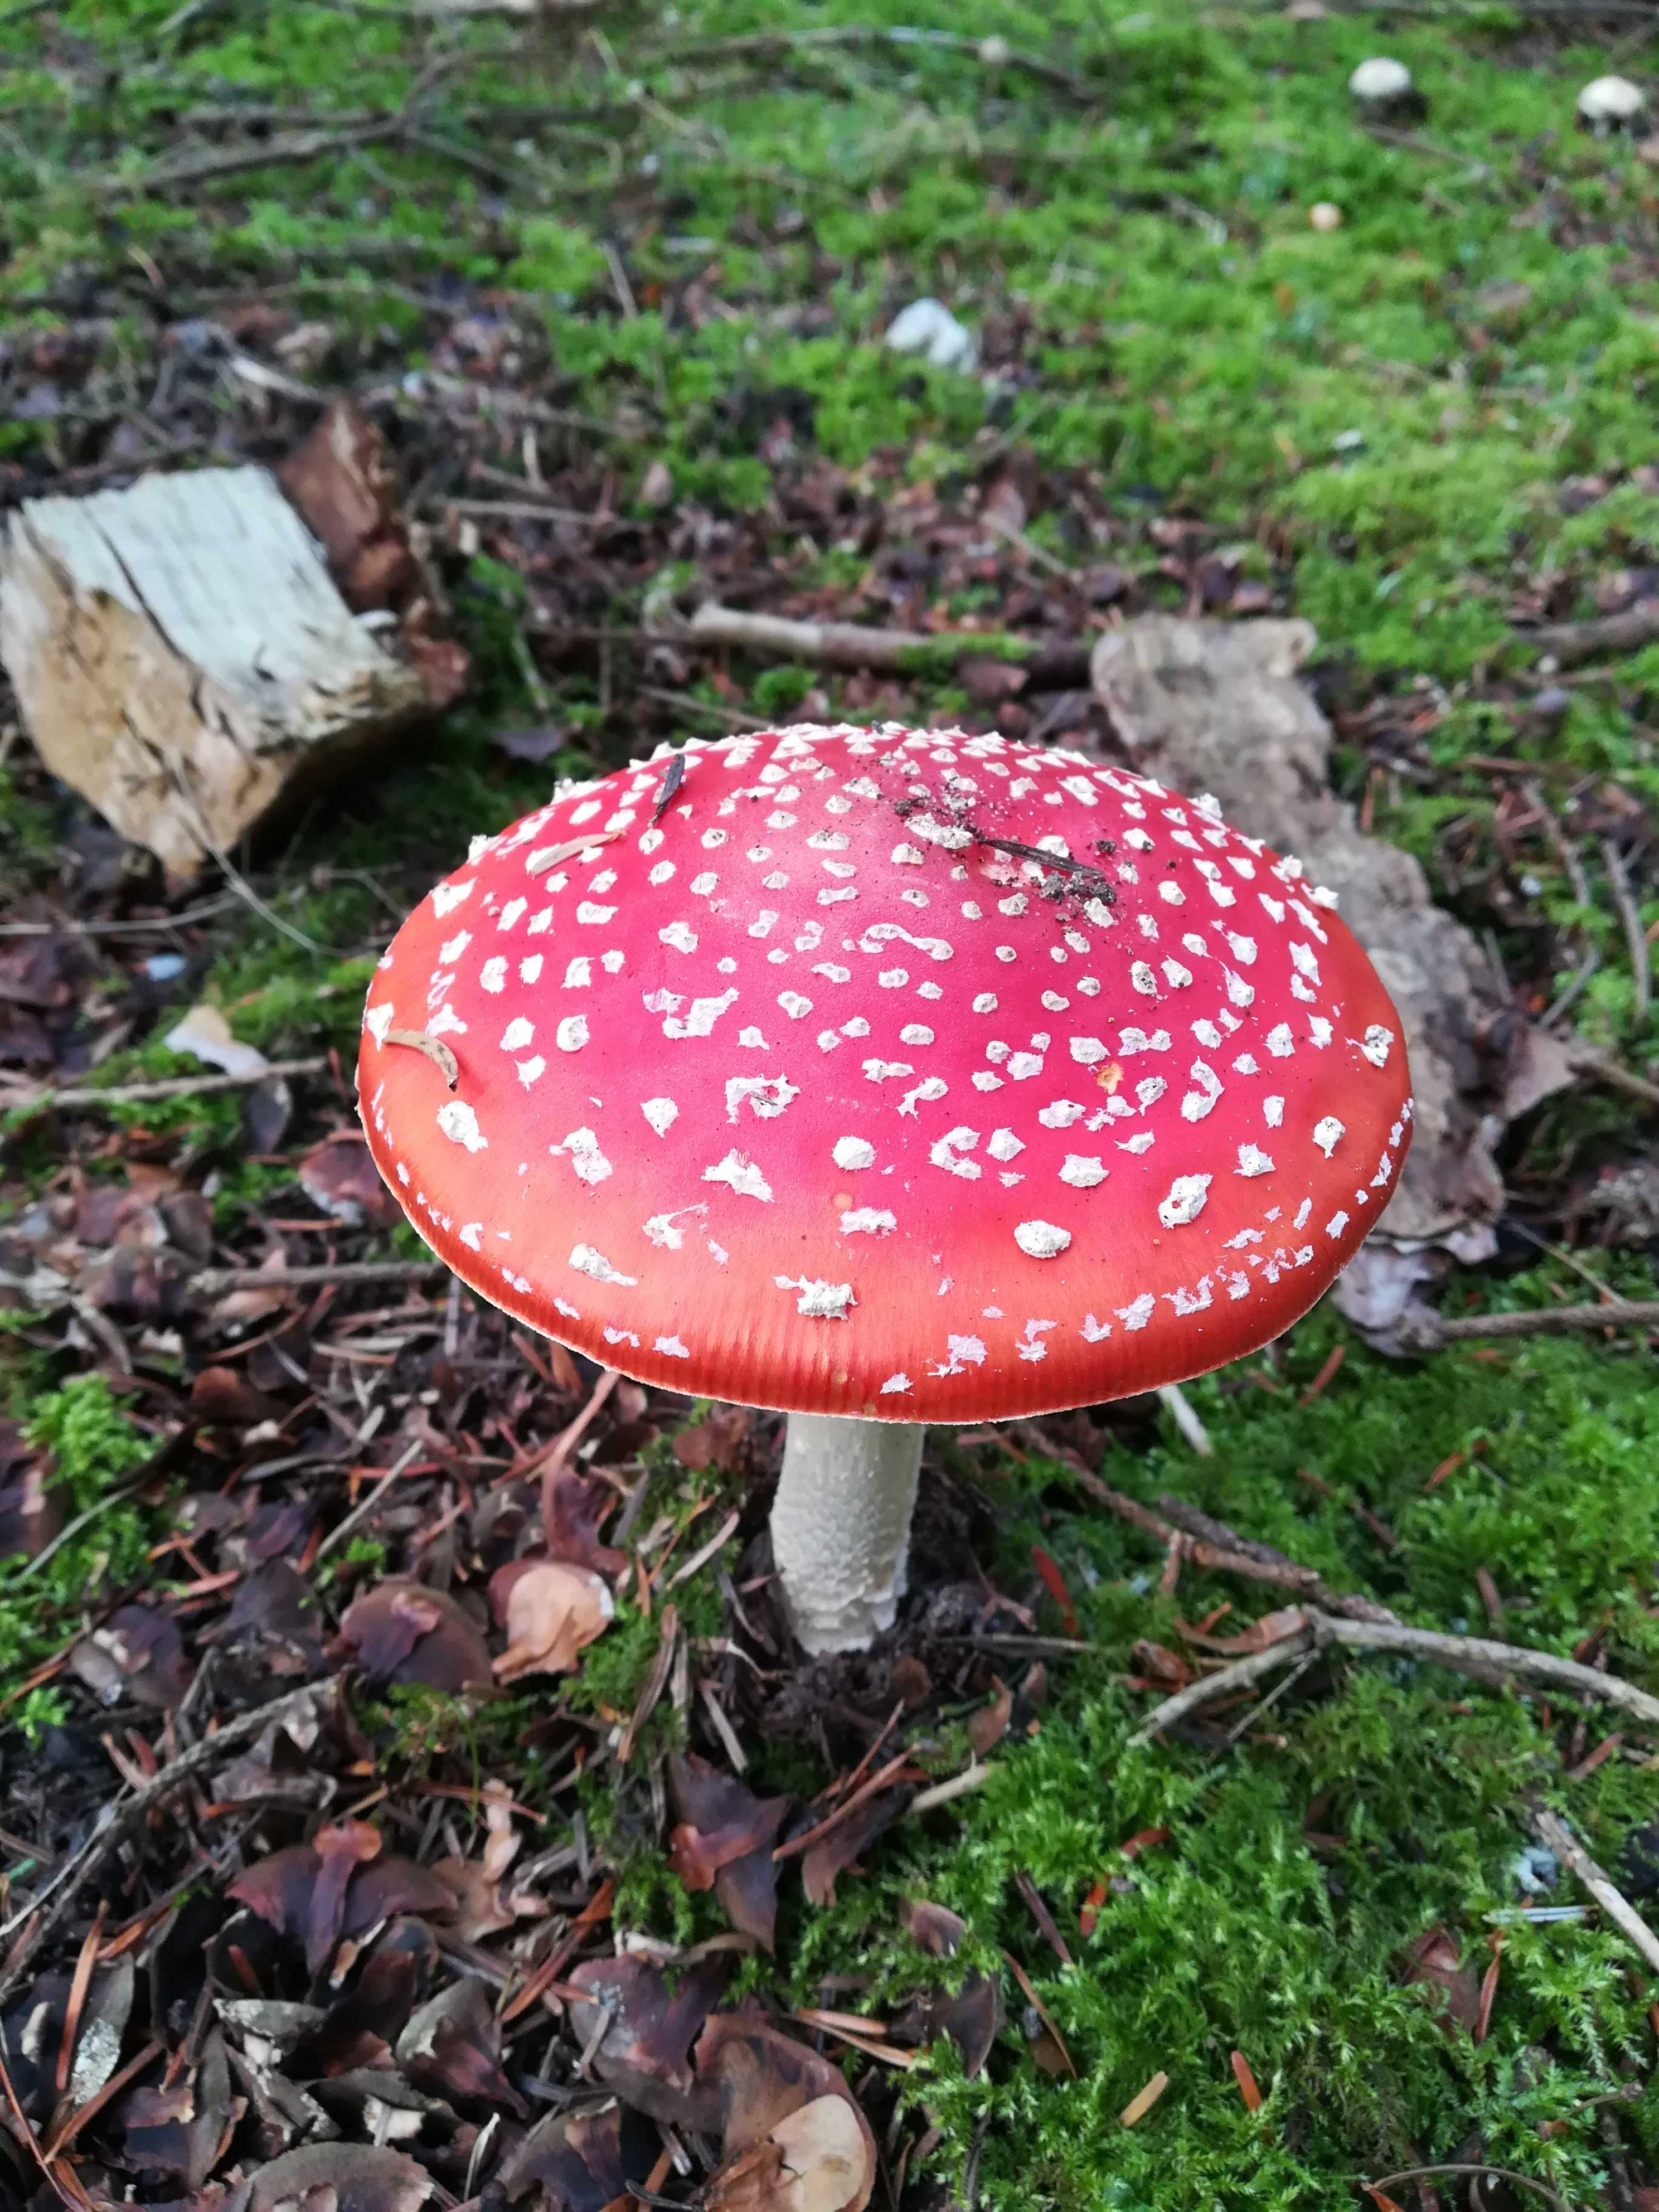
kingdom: Fungi
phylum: Basidiomycota
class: Agaricomycetes
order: Agaricales
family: Amanitaceae
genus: Amanita
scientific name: Amanita muscaria
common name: rød fluesvamp
